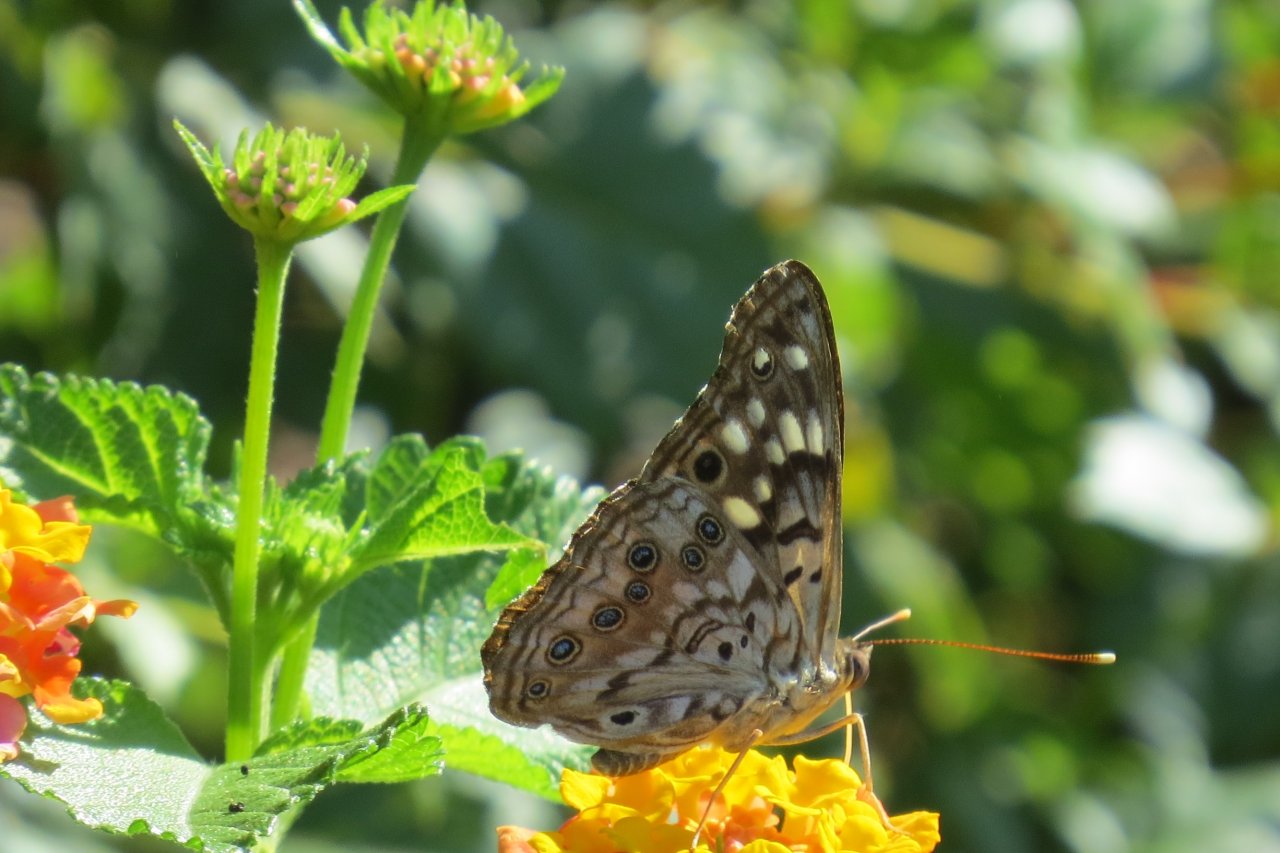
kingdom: Animalia
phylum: Arthropoda
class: Insecta
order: Lepidoptera
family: Nymphalidae
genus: Vanessa
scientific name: Vanessa cardui
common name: Painted Lady
